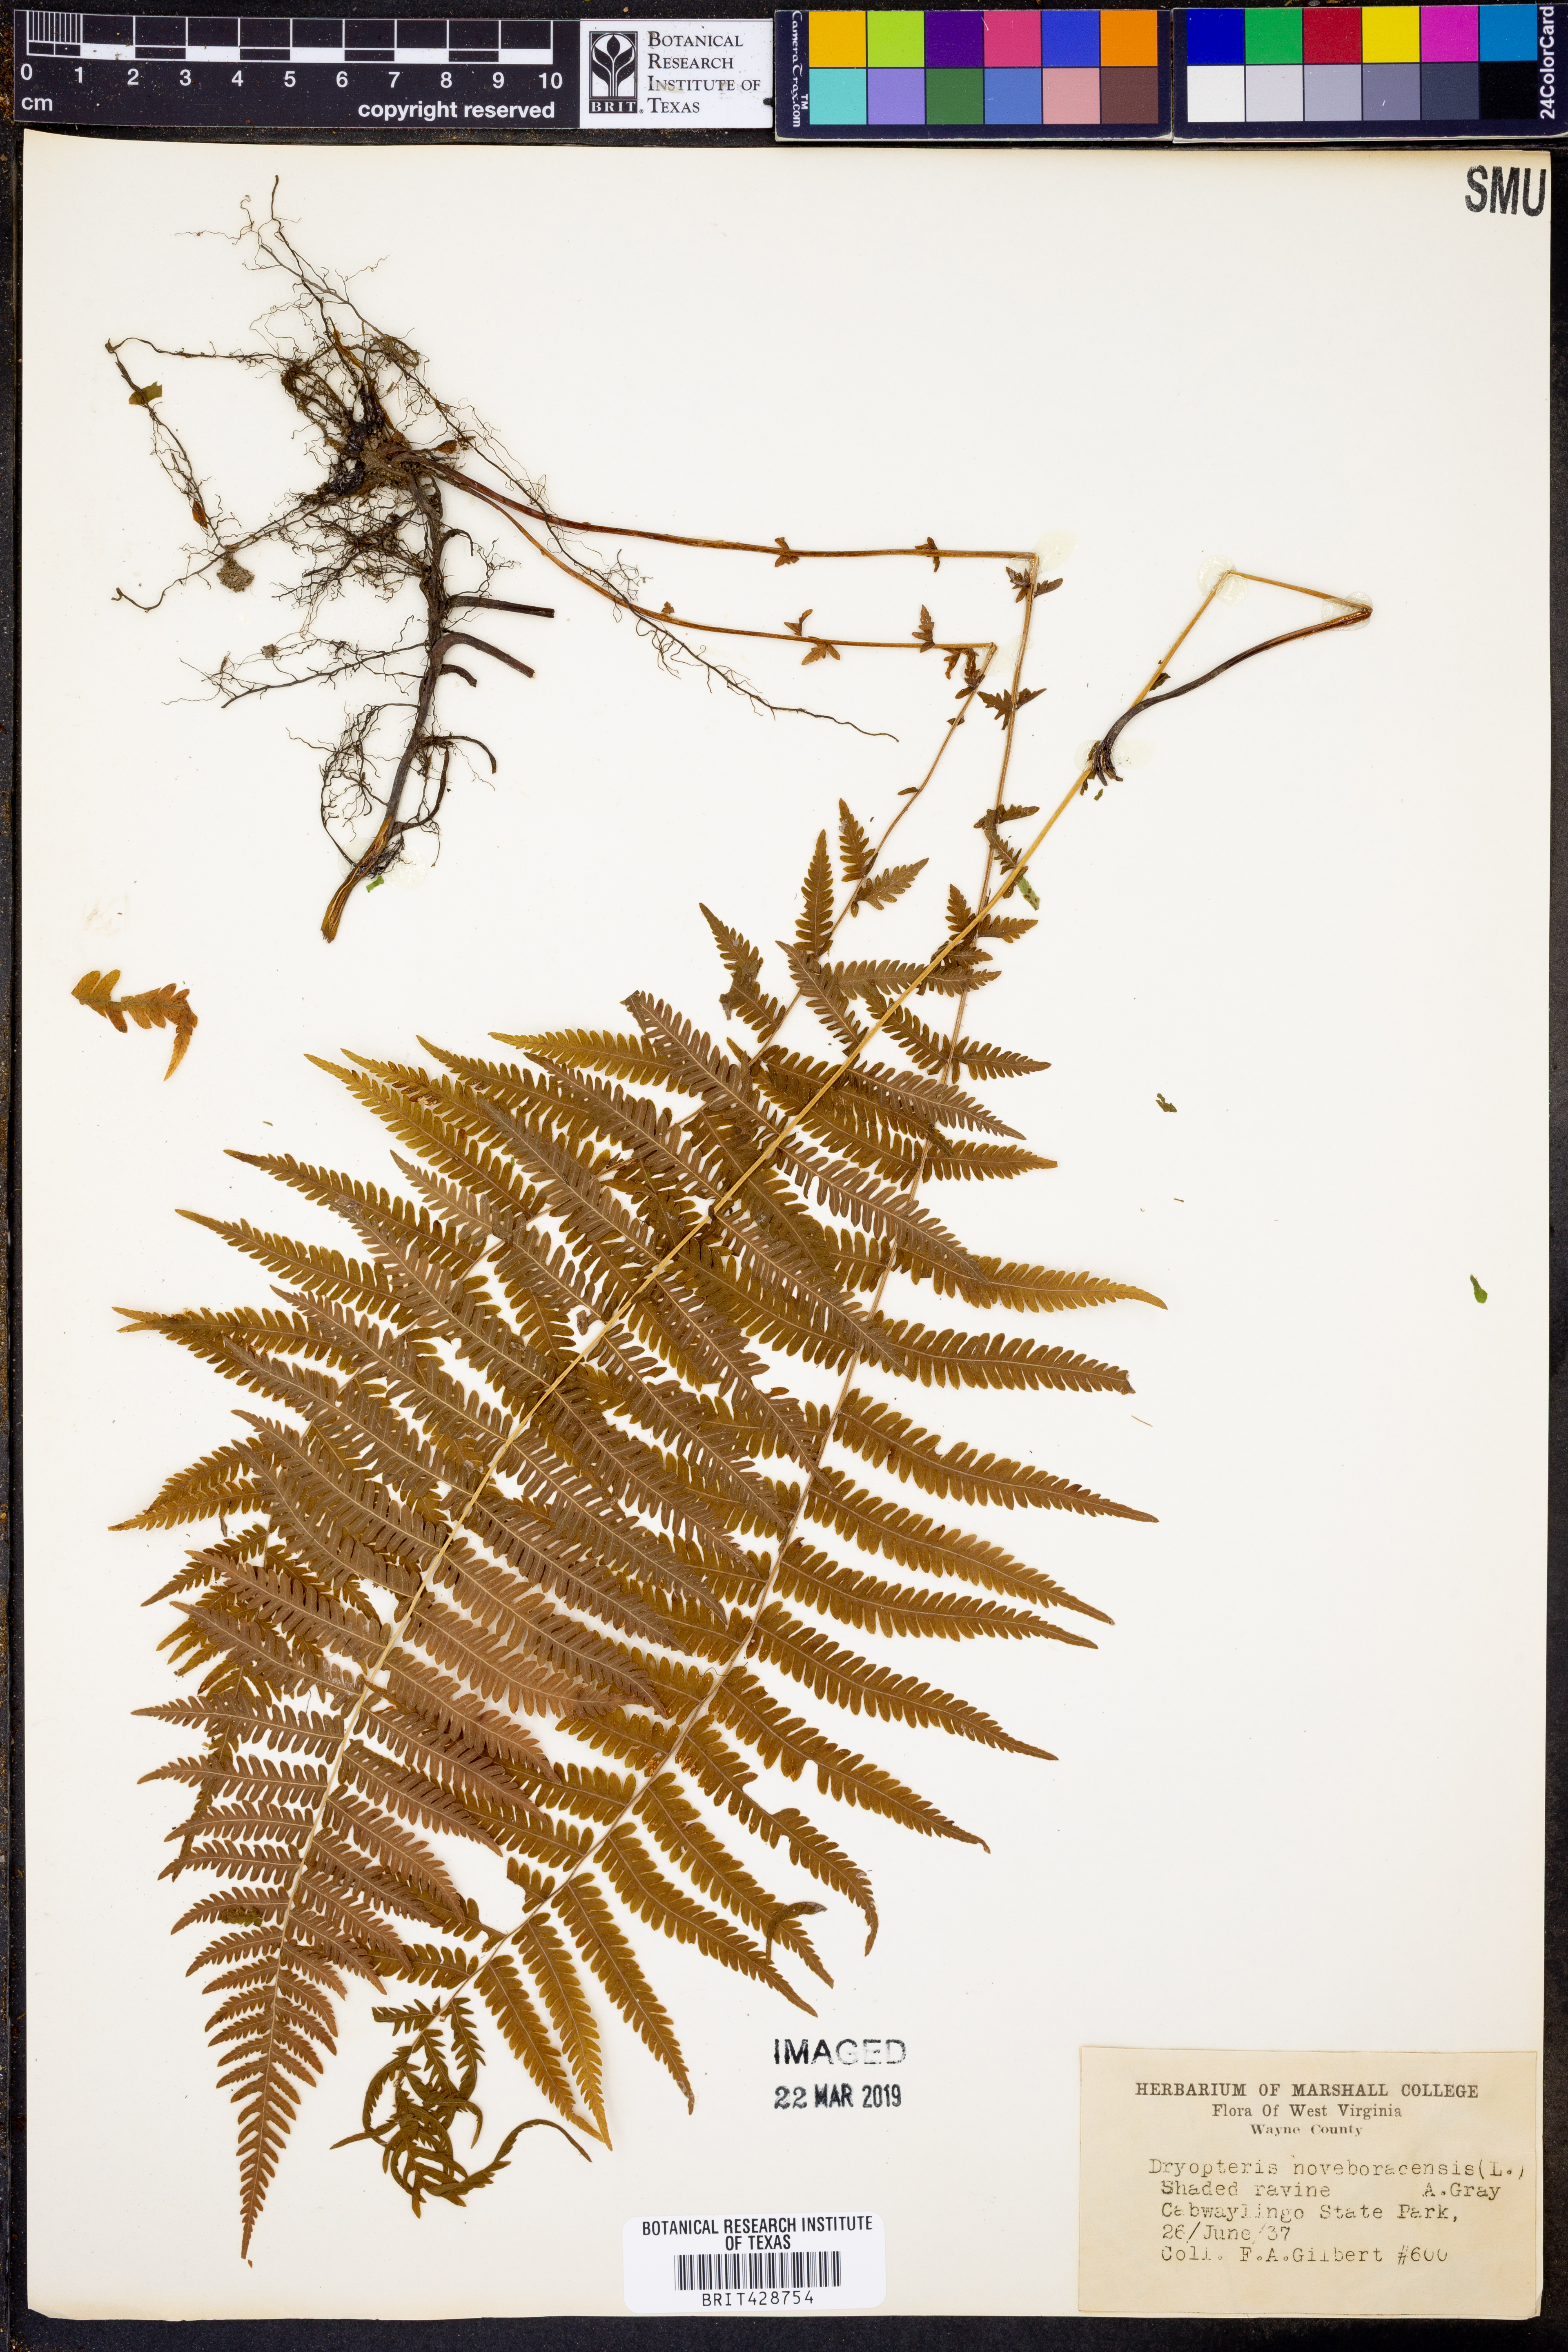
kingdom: Plantae
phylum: Tracheophyta
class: Polypodiopsida
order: Polypodiales
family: Thelypteridaceae
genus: Amauropelta
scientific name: Amauropelta noveboracensis
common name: New york fern
